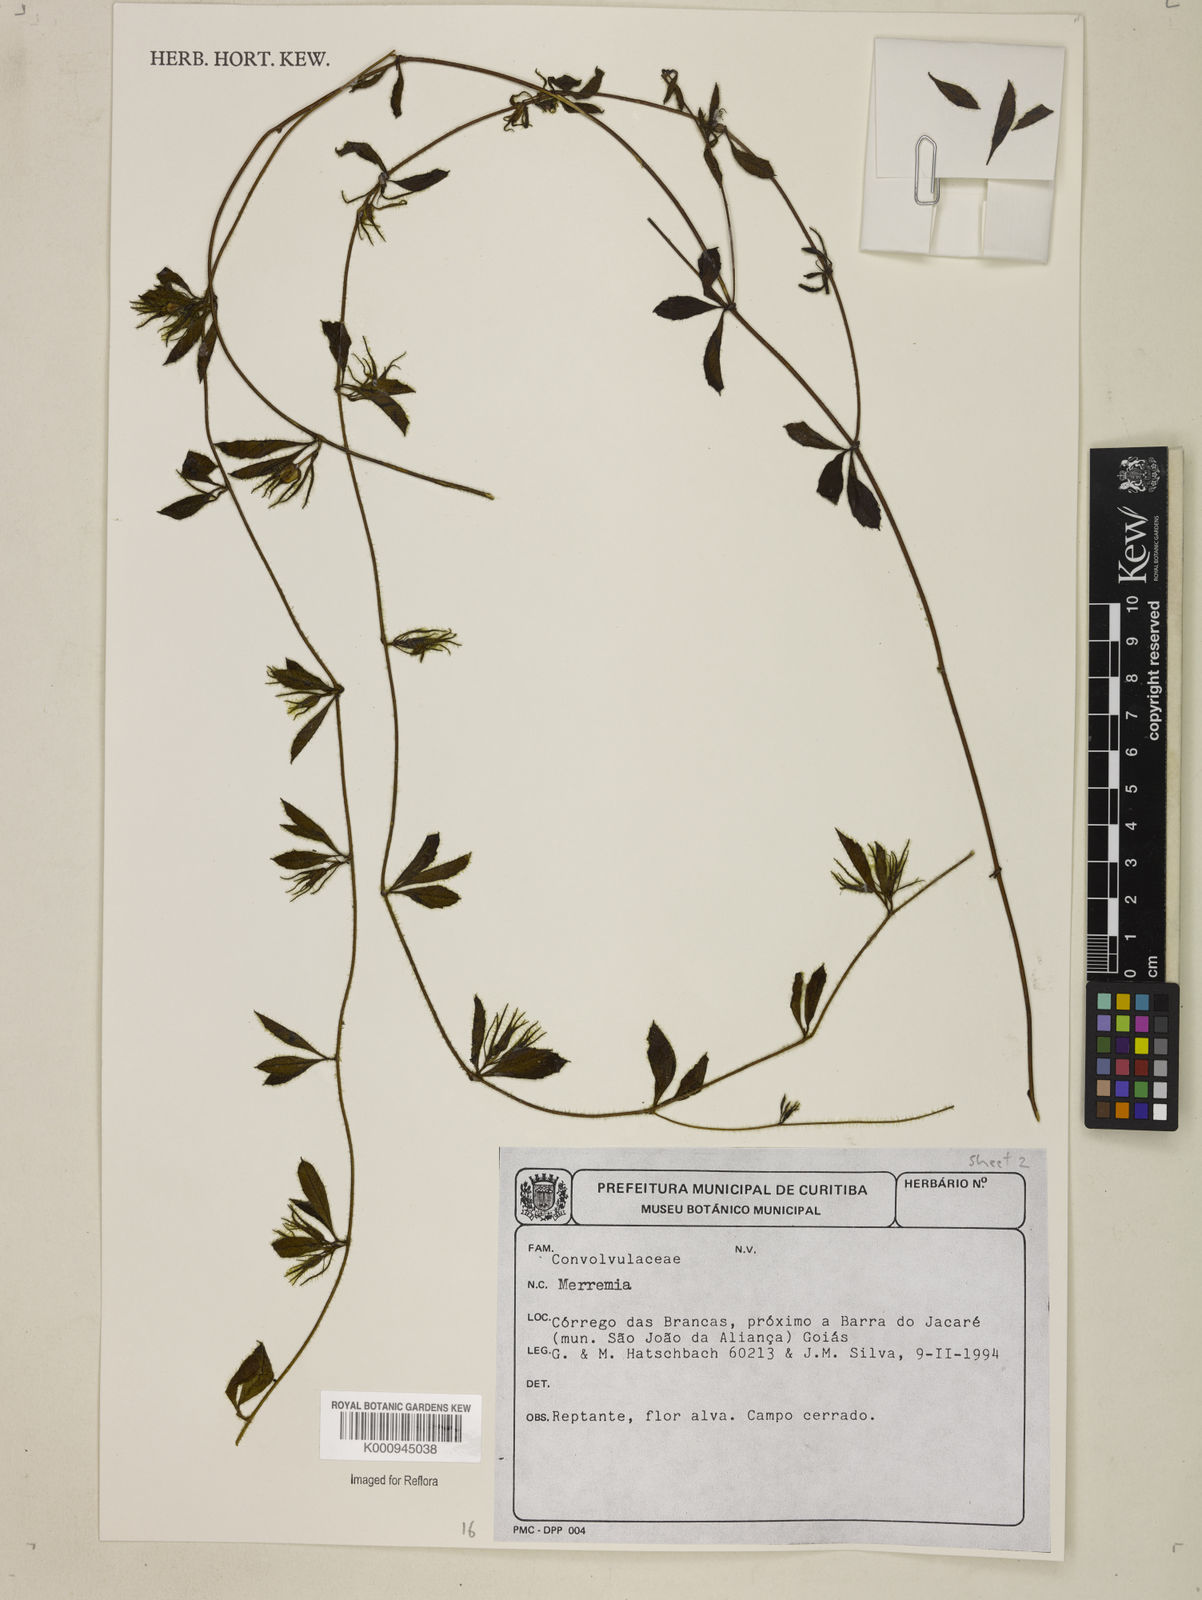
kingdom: Plantae
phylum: Tracheophyta
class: Magnoliopsida
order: Solanales
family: Convolvulaceae
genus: Distimake
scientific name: Distimake cissoides
